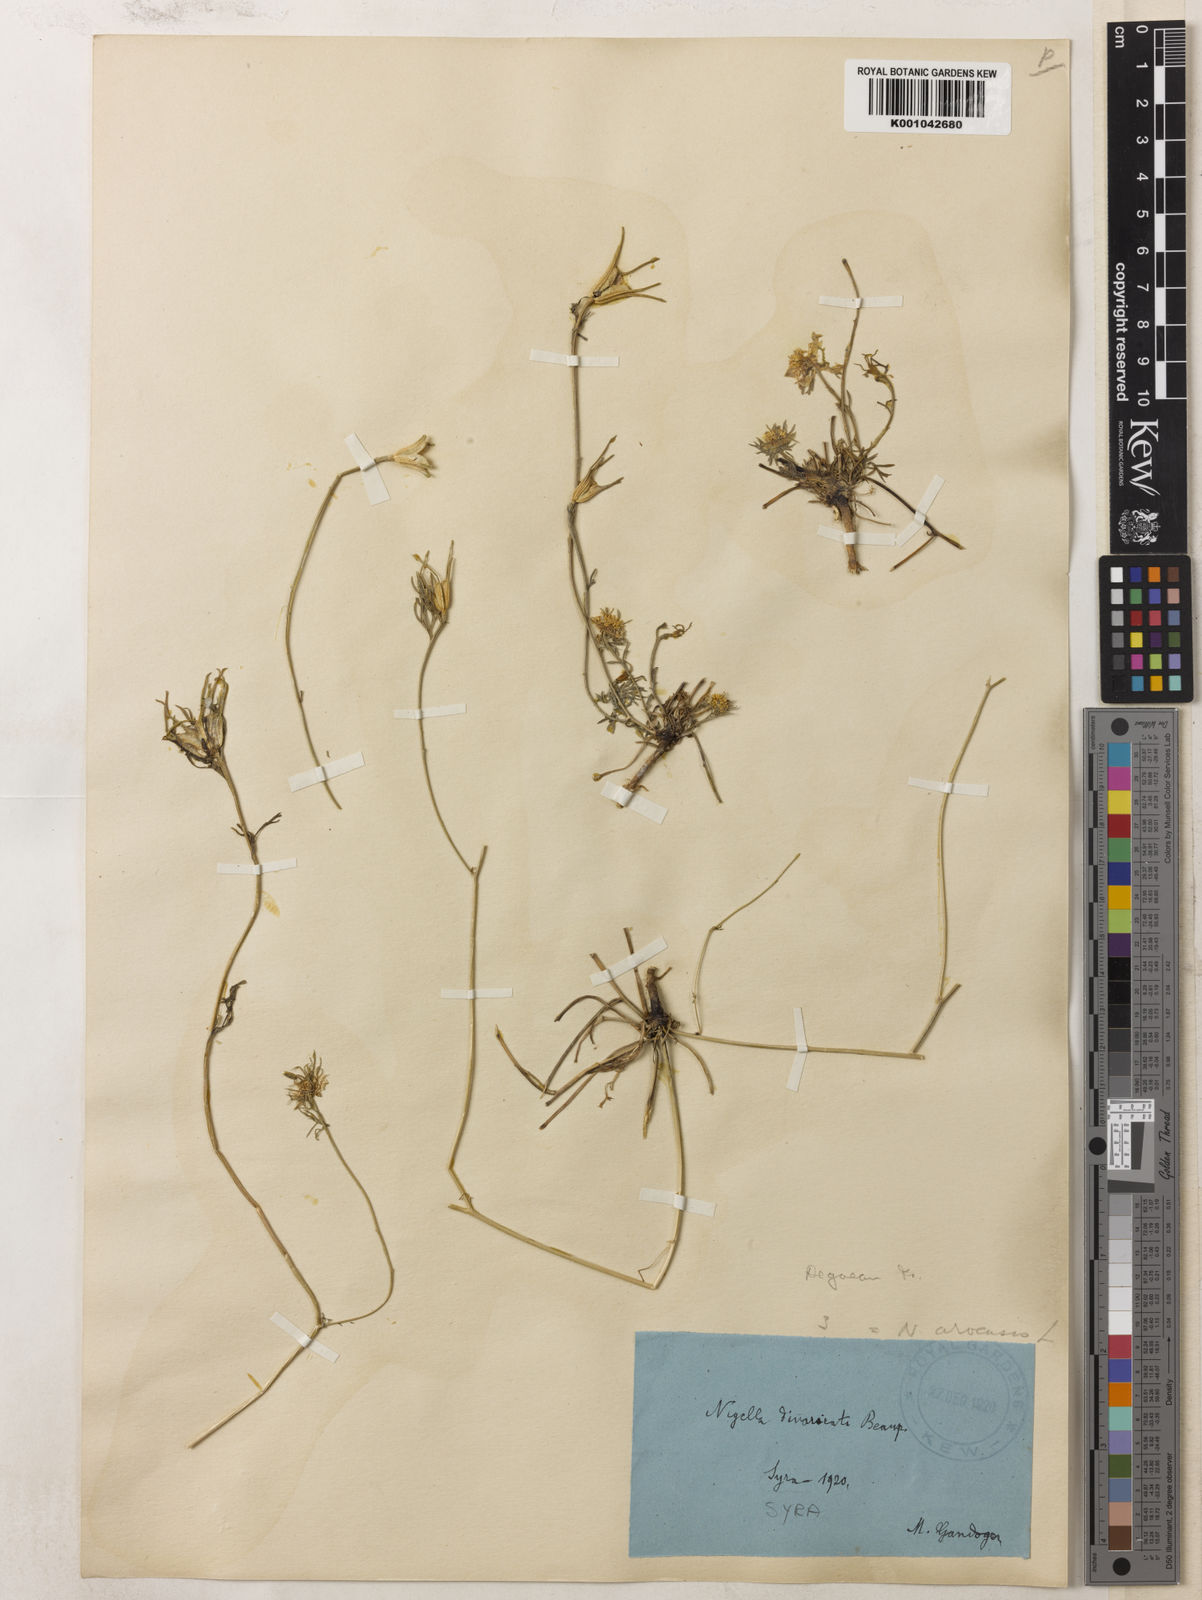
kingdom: Plantae
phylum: Tracheophyta
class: Magnoliopsida
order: Ranunculales
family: Ranunculaceae
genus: Nigella
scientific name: Nigella arvensis
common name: Wild fennel-flower
